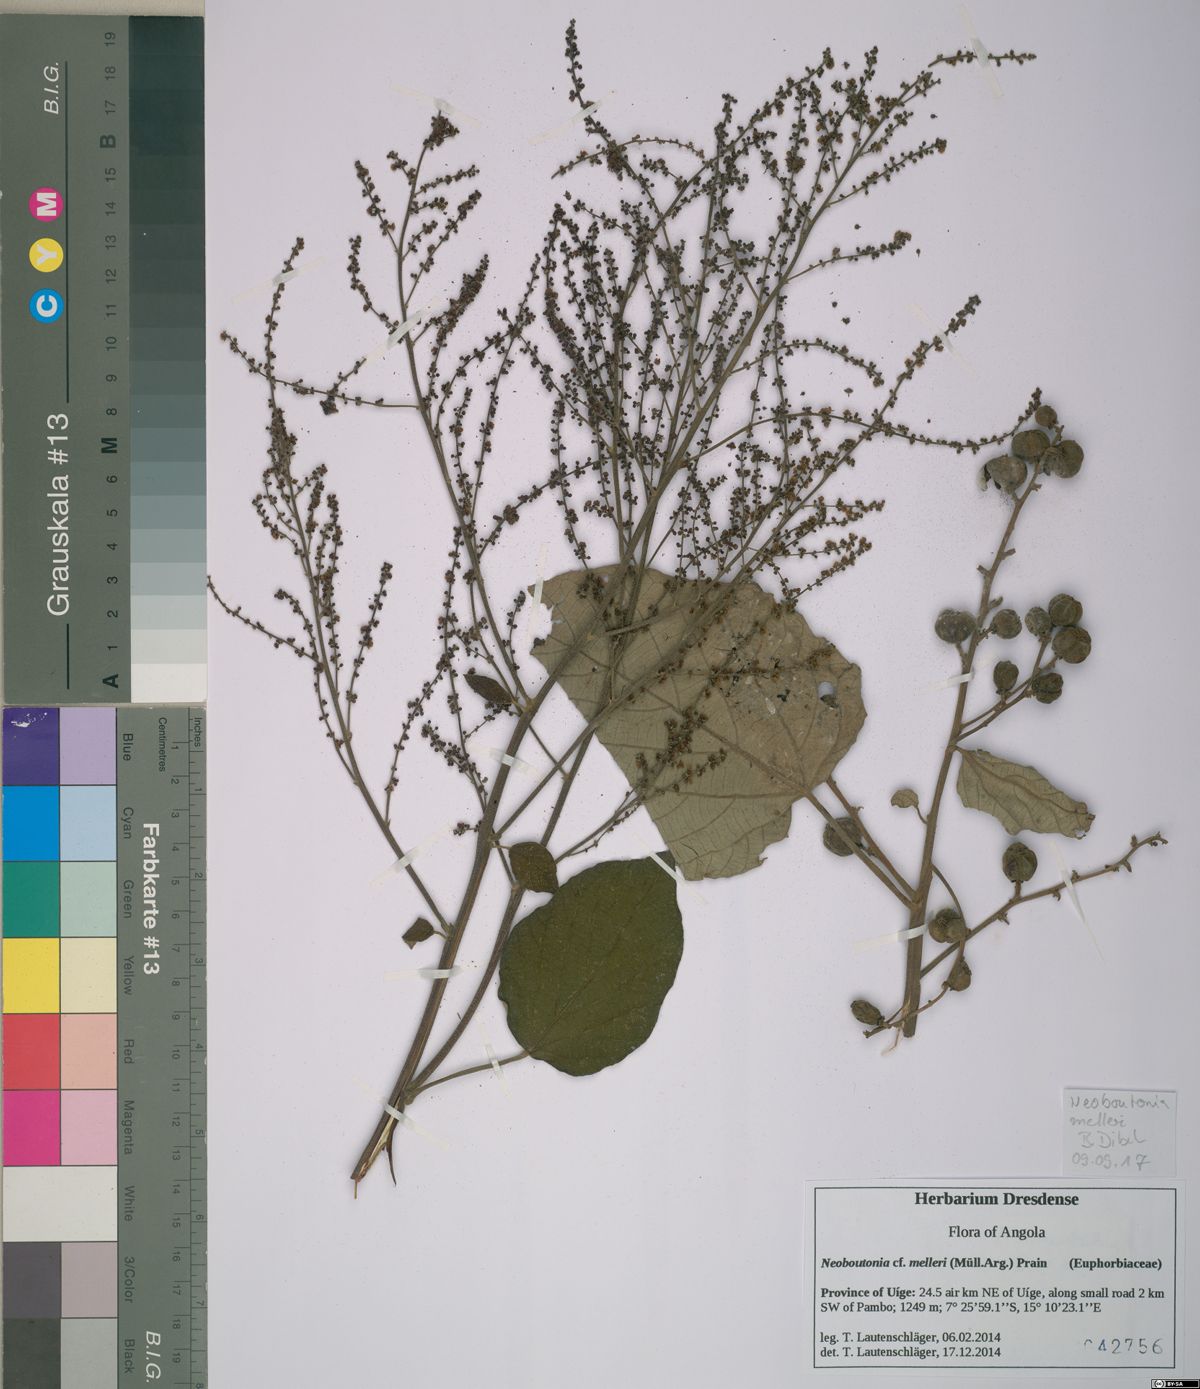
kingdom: Plantae
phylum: Tracheophyta
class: Magnoliopsida
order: Malpighiales
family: Euphorbiaceae
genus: Neoboutonia
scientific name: Neoboutonia melleri
